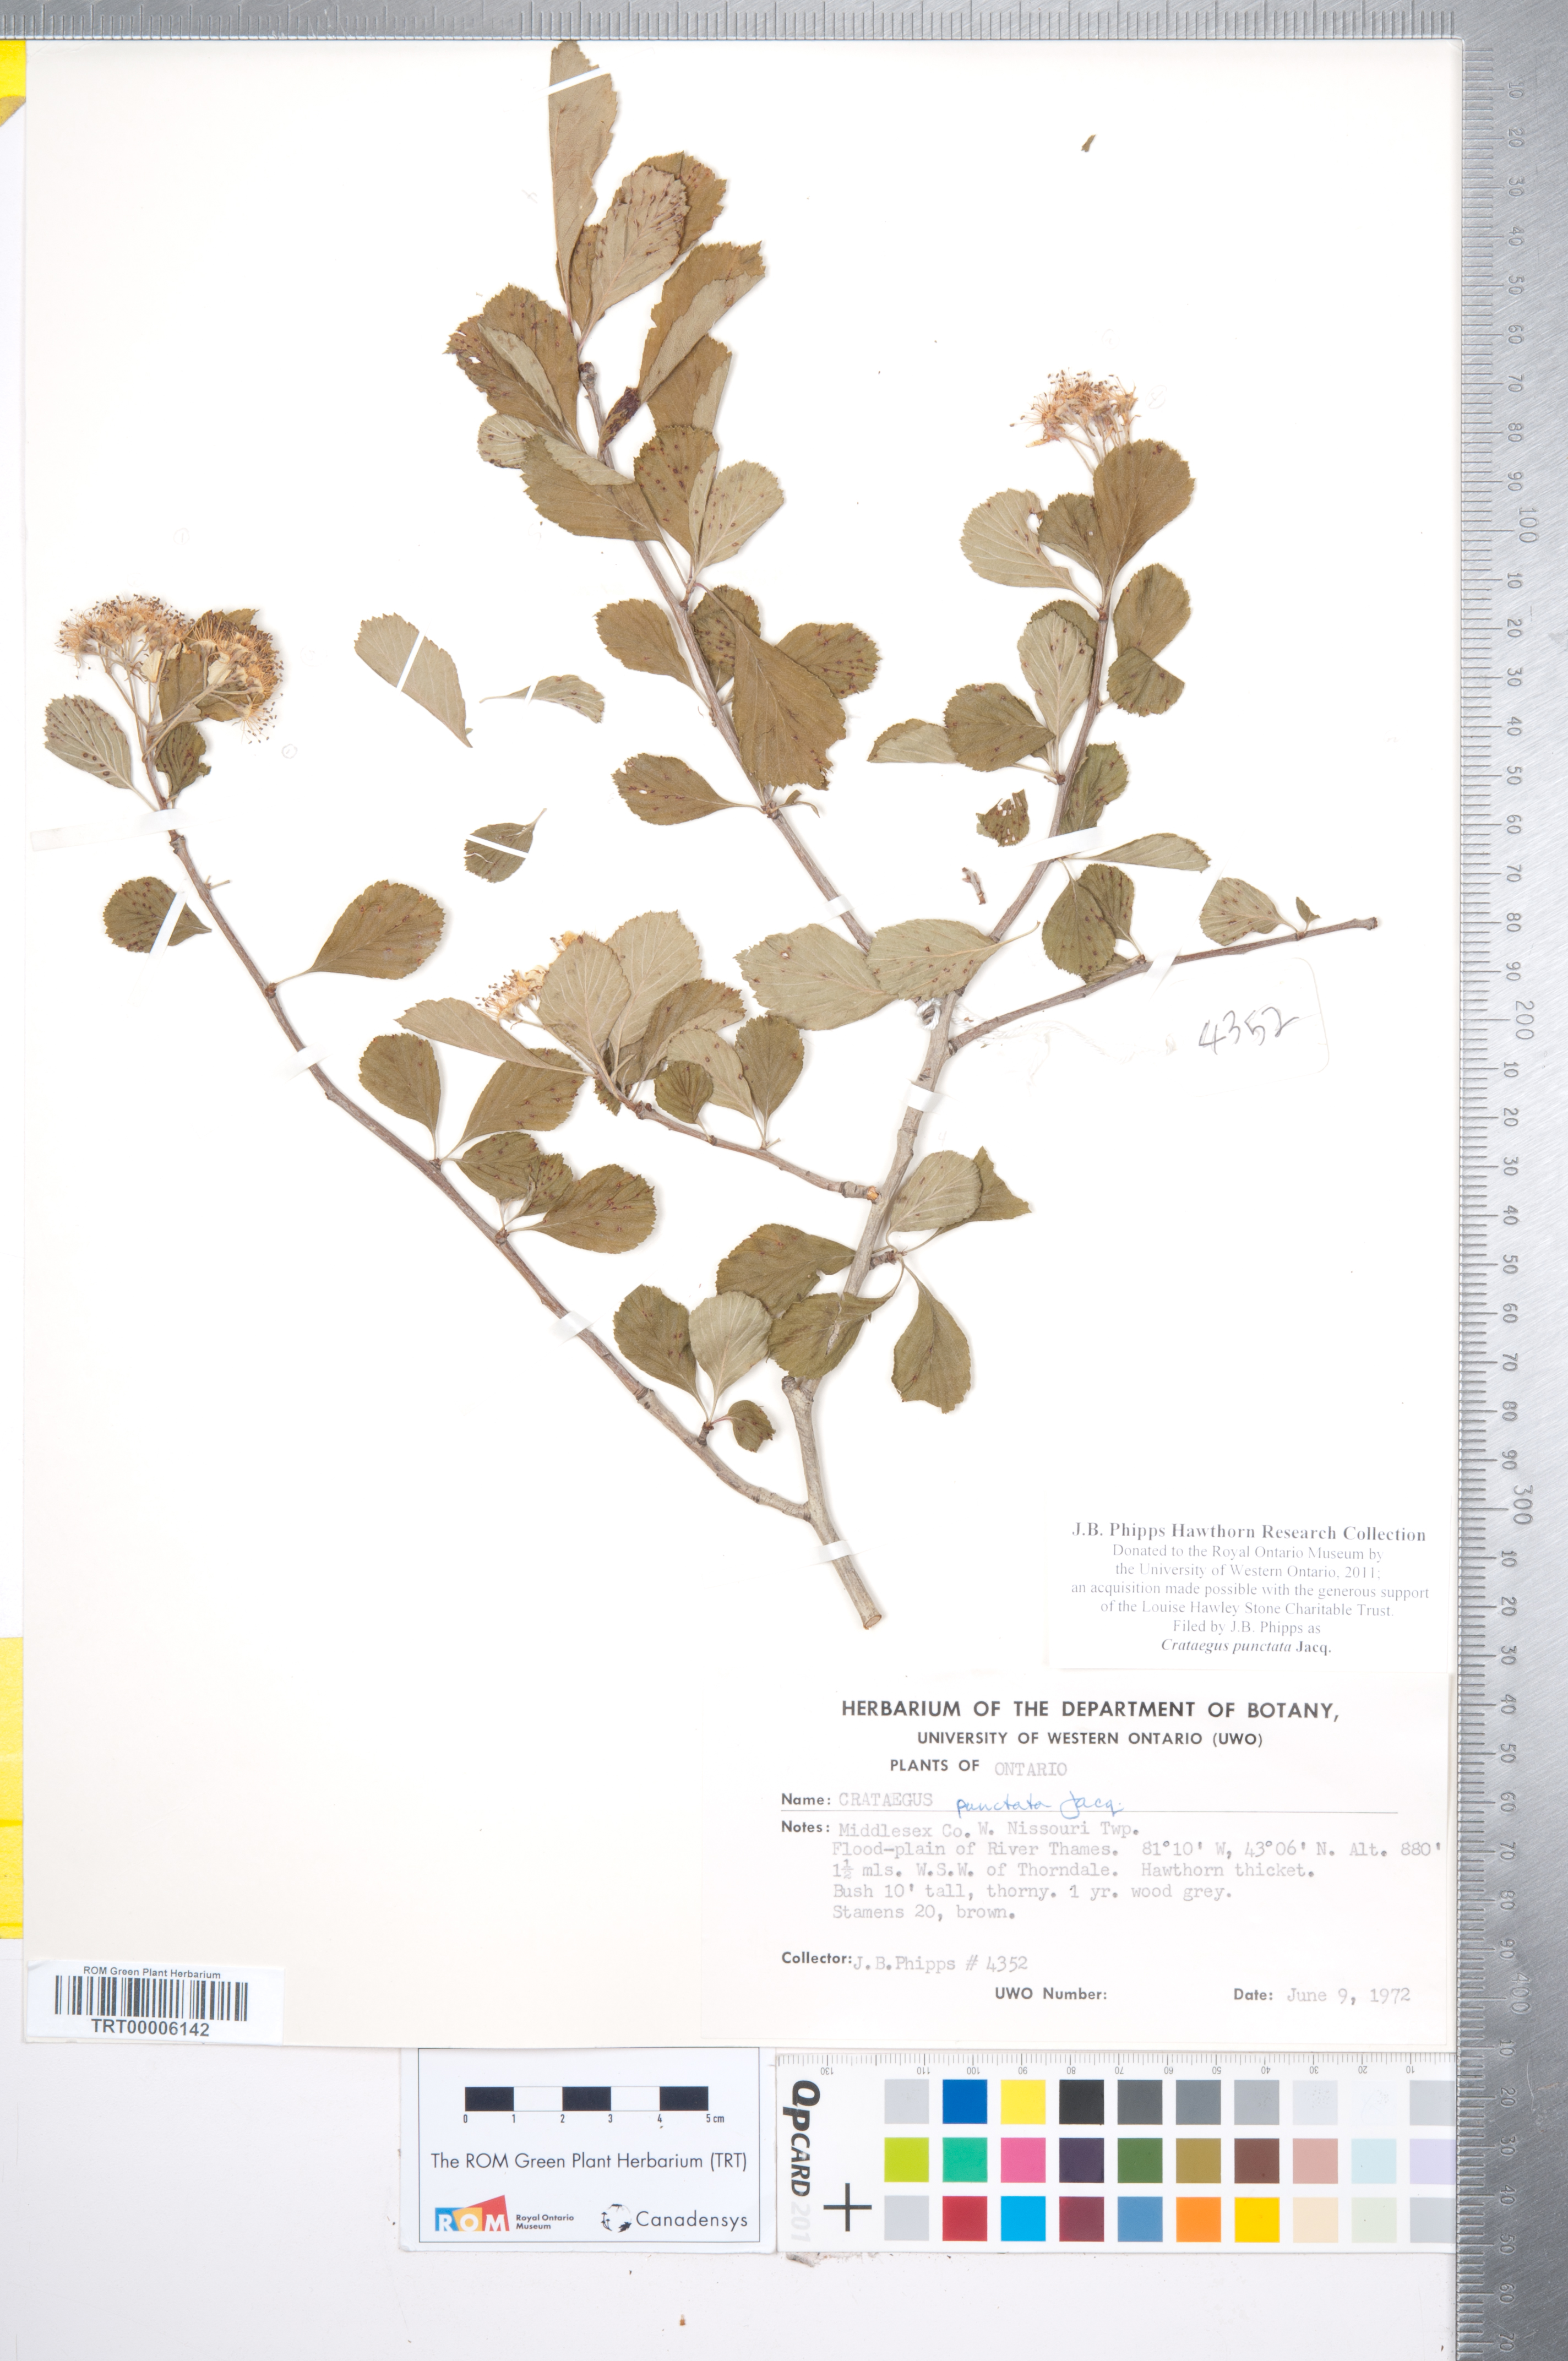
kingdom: Plantae
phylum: Tracheophyta
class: Magnoliopsida
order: Rosales
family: Rosaceae
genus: Crataegus
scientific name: Crataegus punctata
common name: Dotted hawthorn
